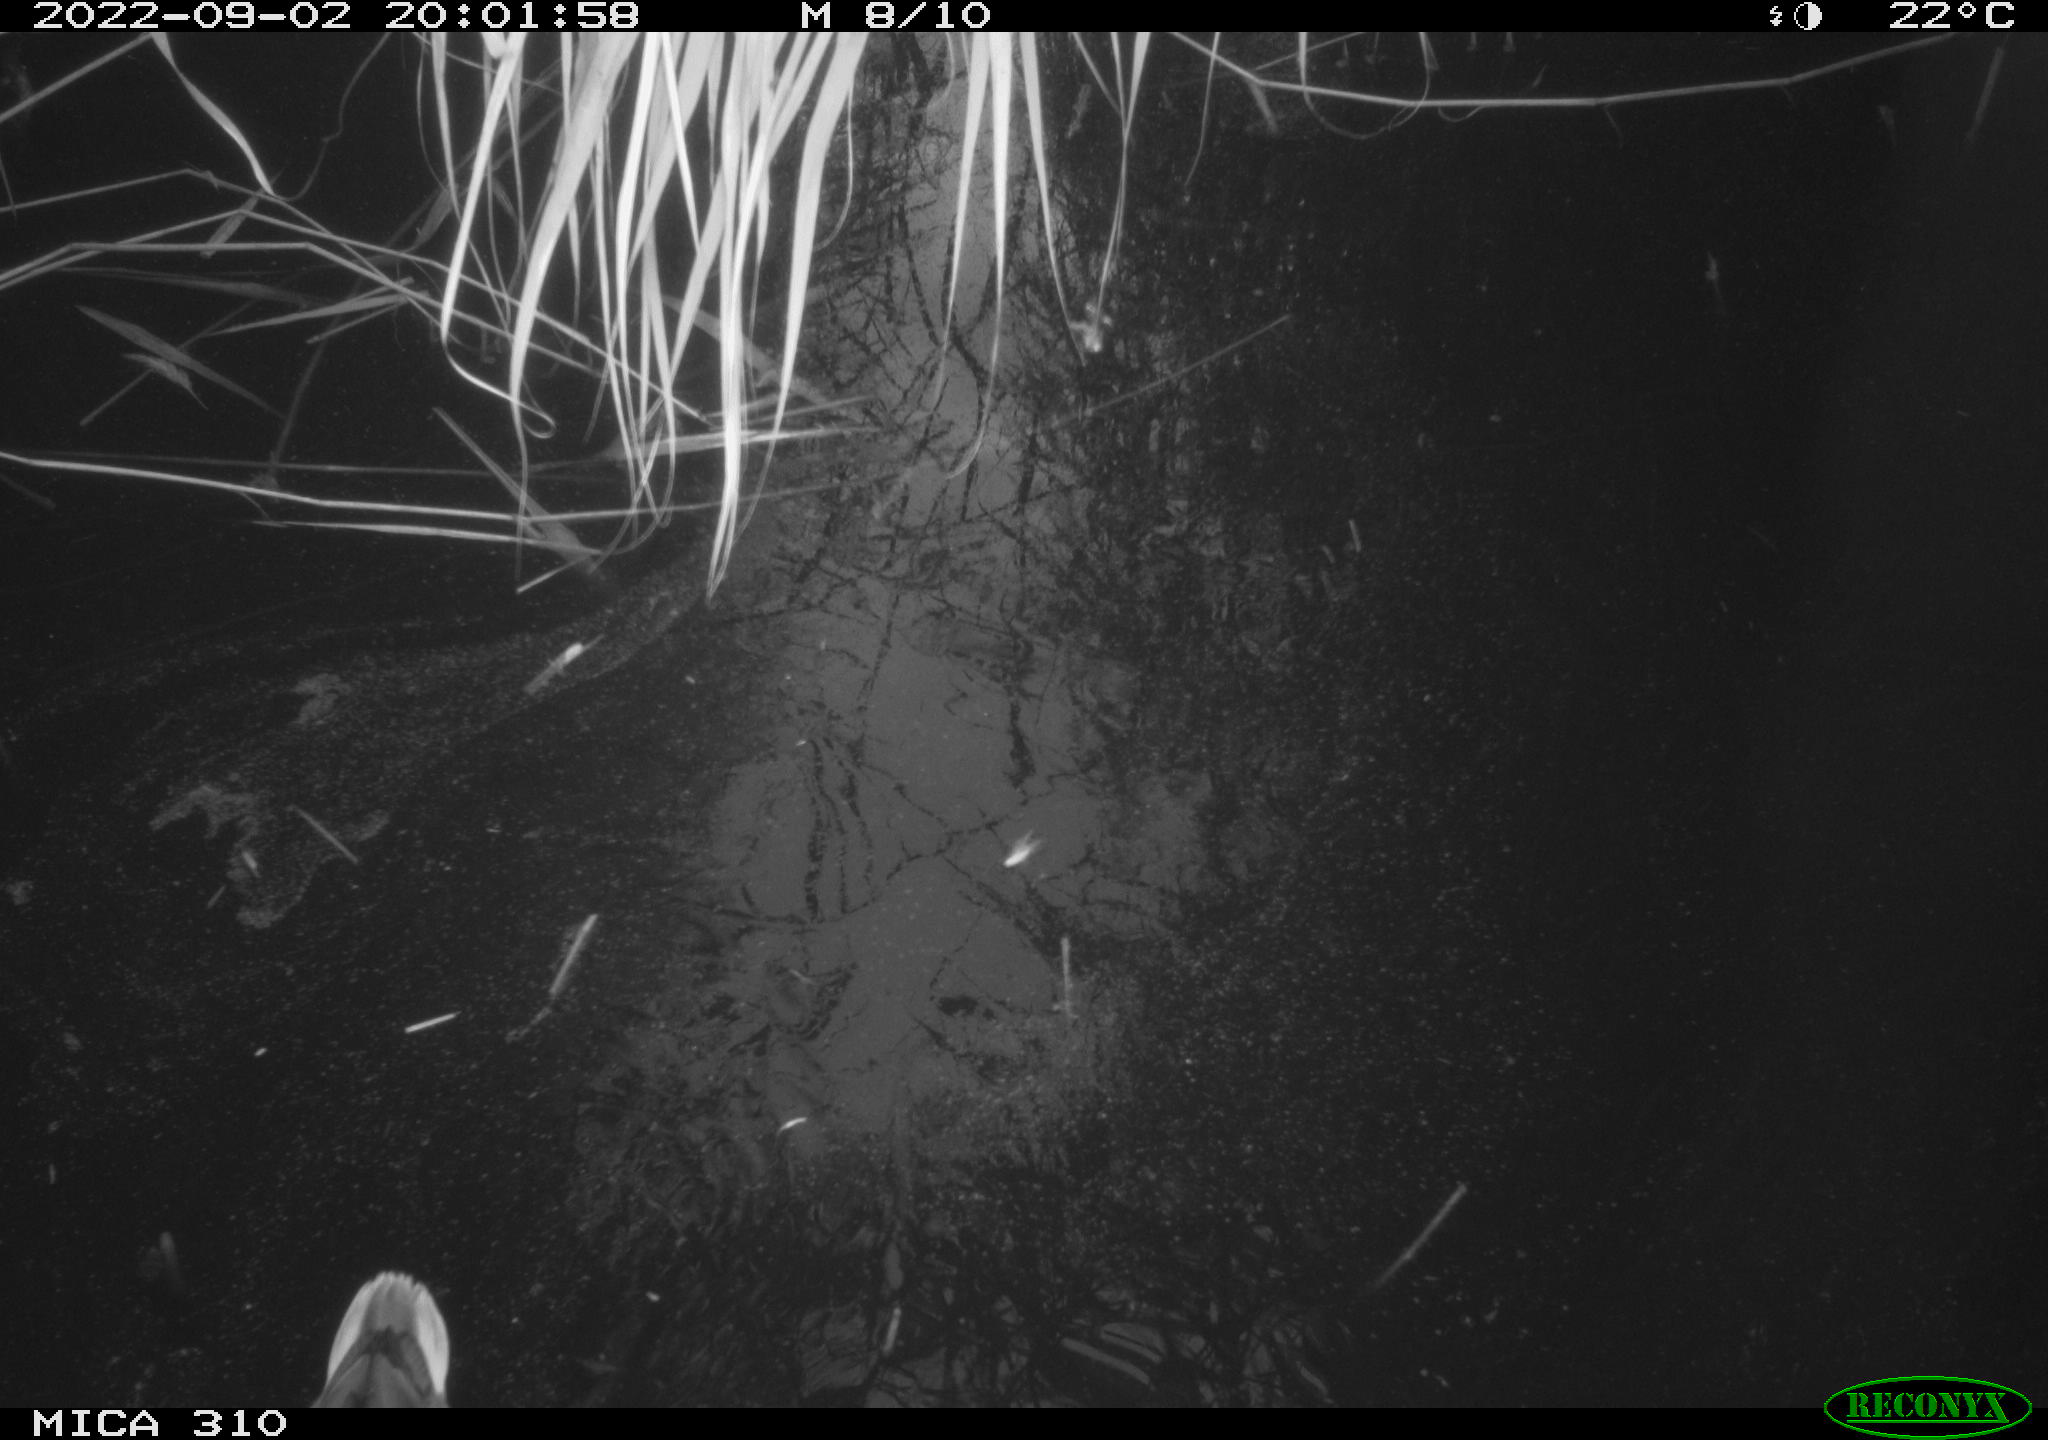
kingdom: Animalia
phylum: Chordata
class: Aves
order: Anseriformes
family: Anatidae
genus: Anas
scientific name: Anas platyrhynchos
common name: Mallard
